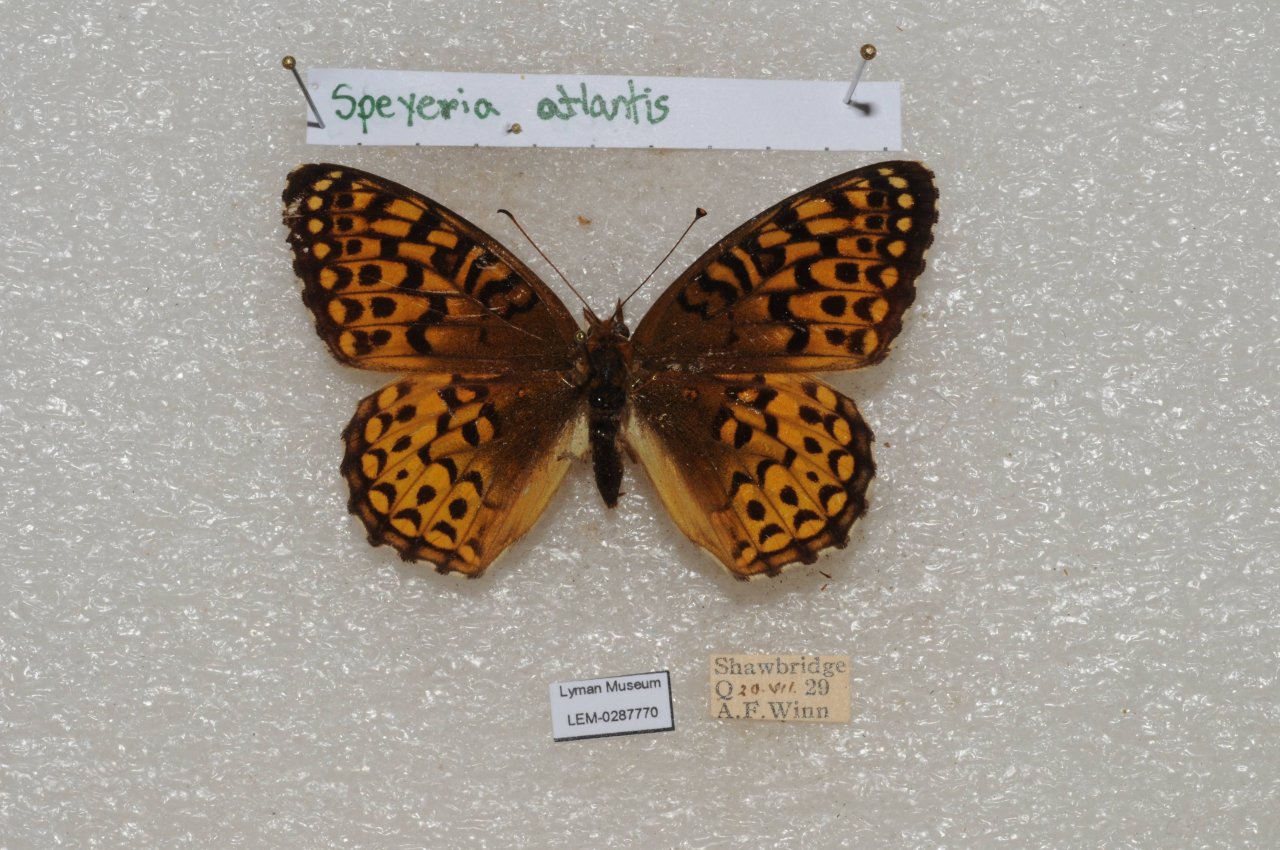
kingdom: Animalia
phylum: Arthropoda
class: Insecta
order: Lepidoptera
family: Nymphalidae
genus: Speyeria
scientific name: Speyeria atlantis
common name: Atlantis Fritillary
